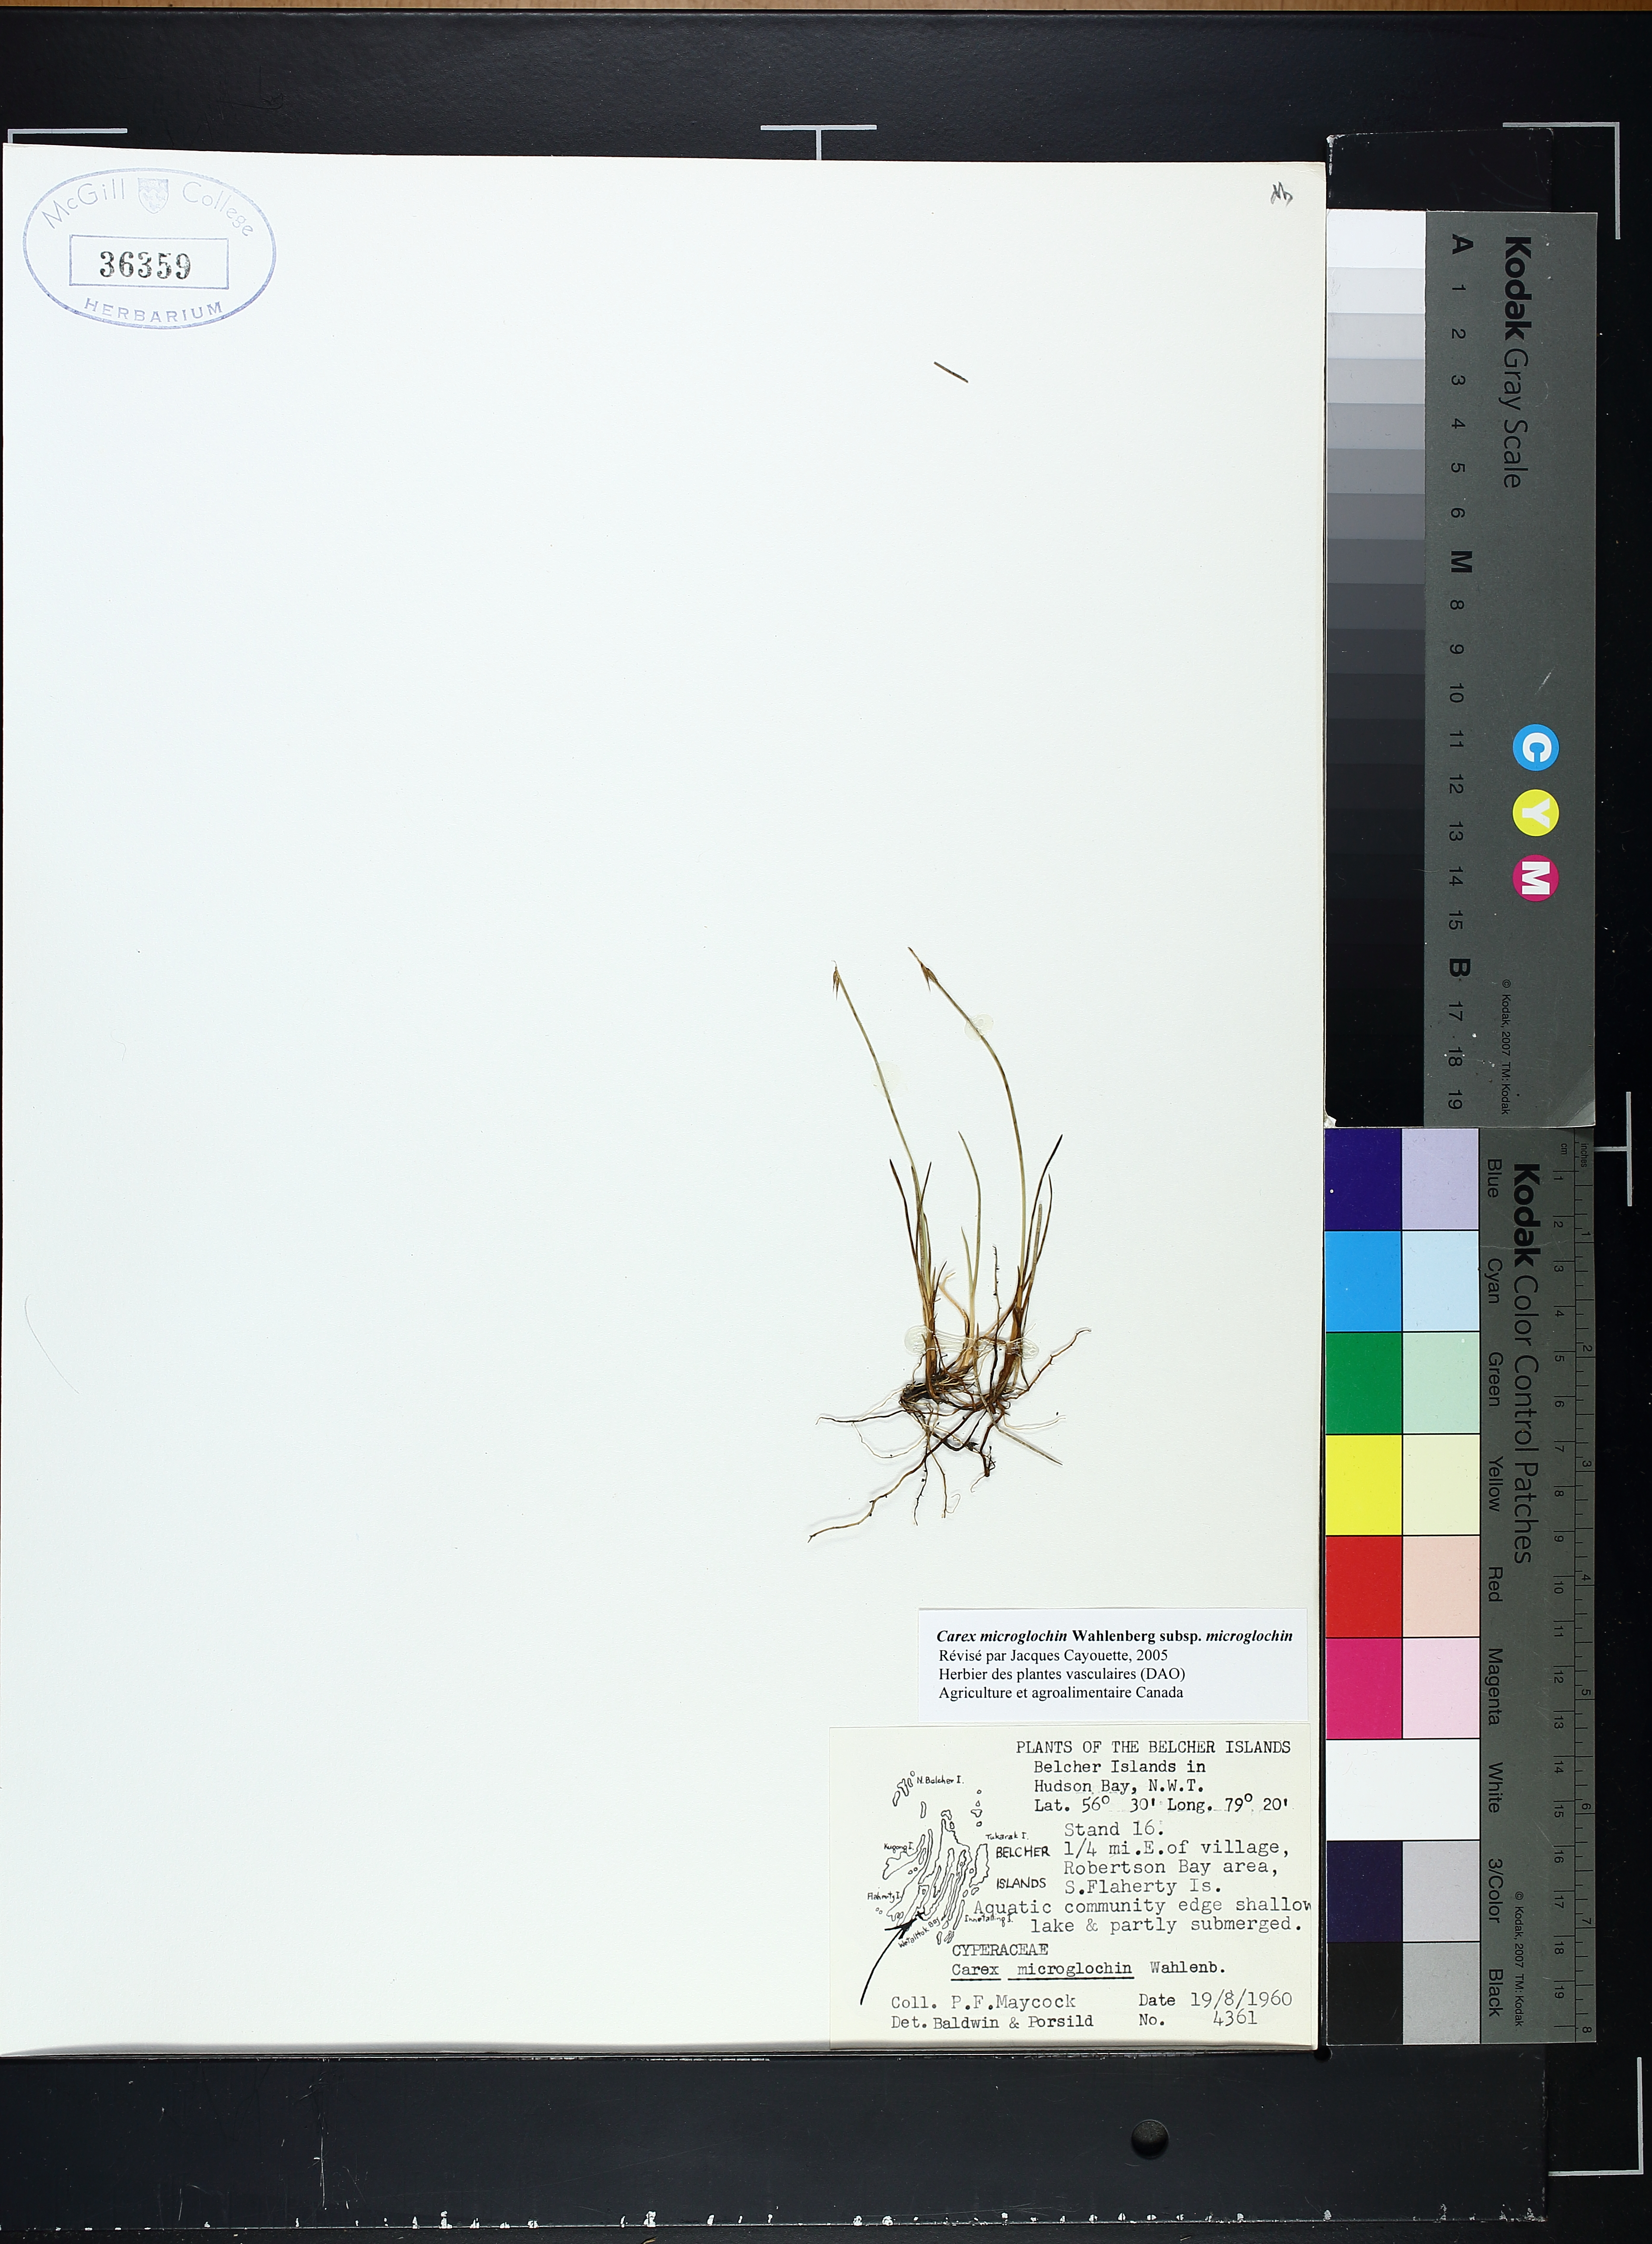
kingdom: Plantae
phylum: Tracheophyta
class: Liliopsida
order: Poales
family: Cyperaceae
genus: Carex
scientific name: Carex microglochin
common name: Bristle sedge
